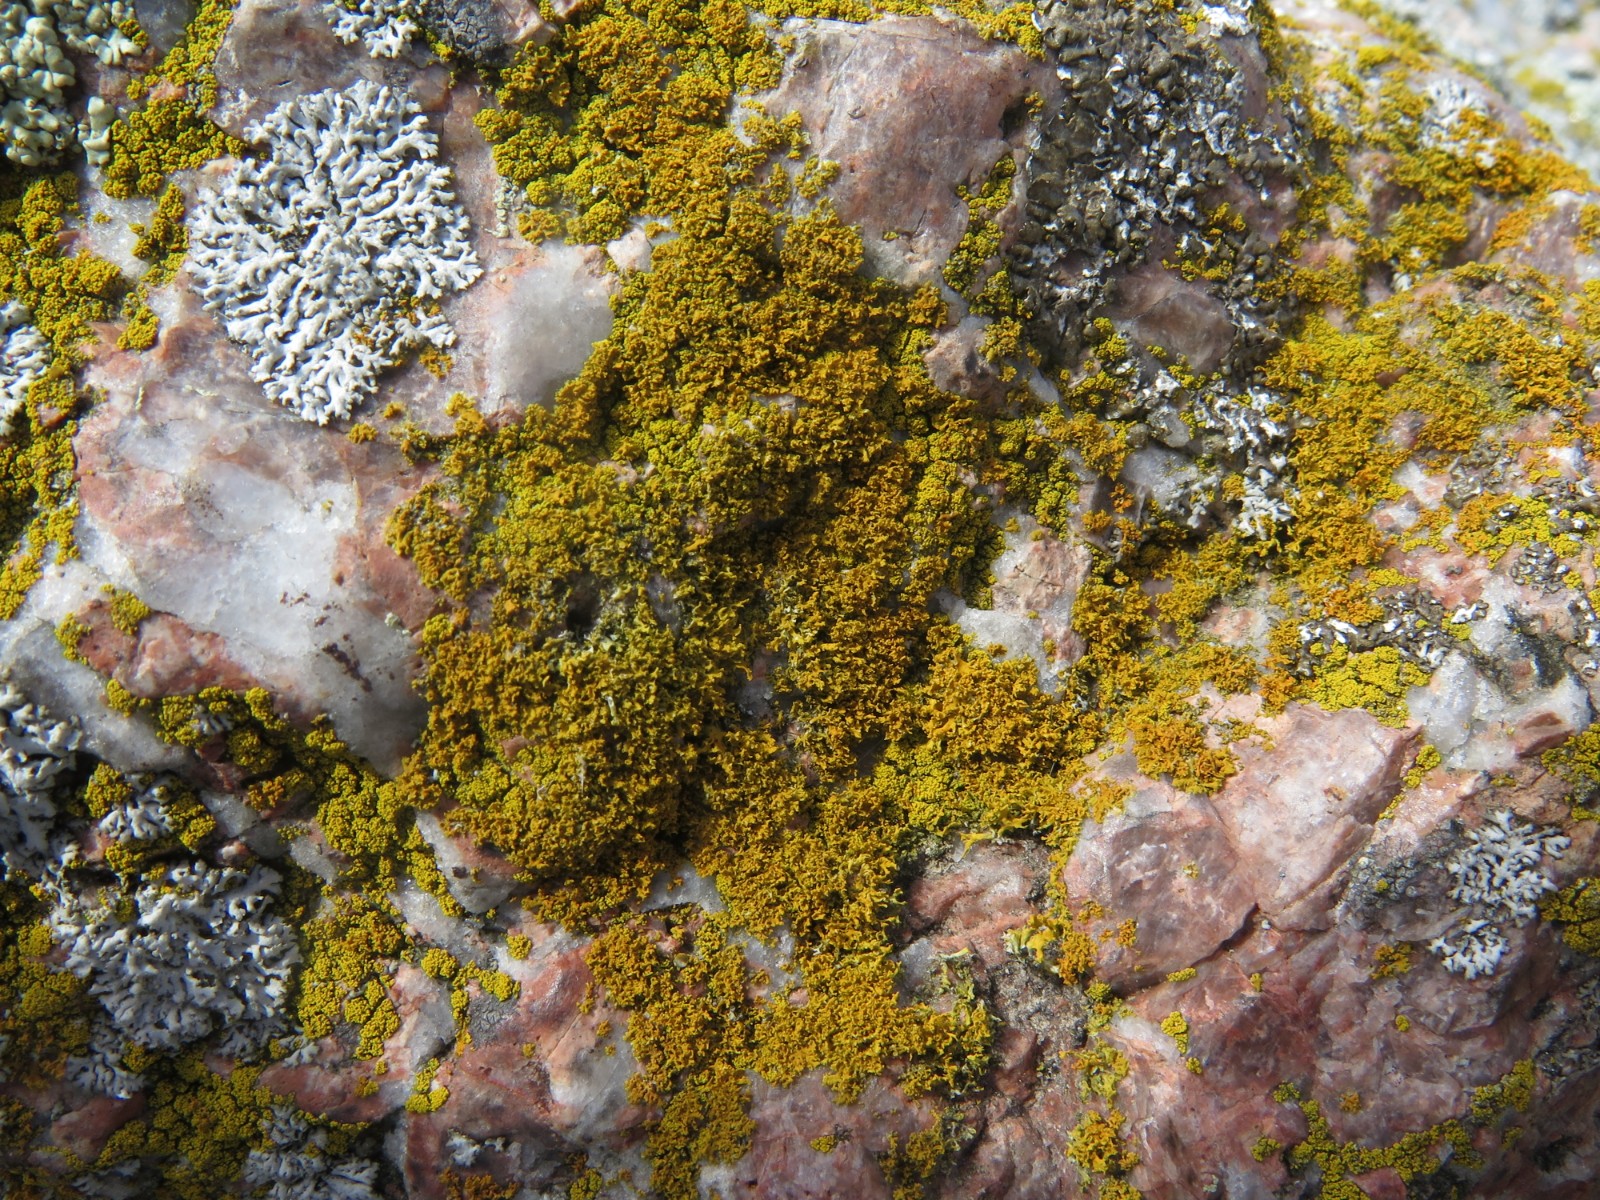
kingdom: Fungi
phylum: Ascomycota
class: Lecanoromycetes
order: Teloschistales
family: Teloschistaceae
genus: Polycauliona
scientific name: Polycauliona candelaria
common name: tue-orangelav
